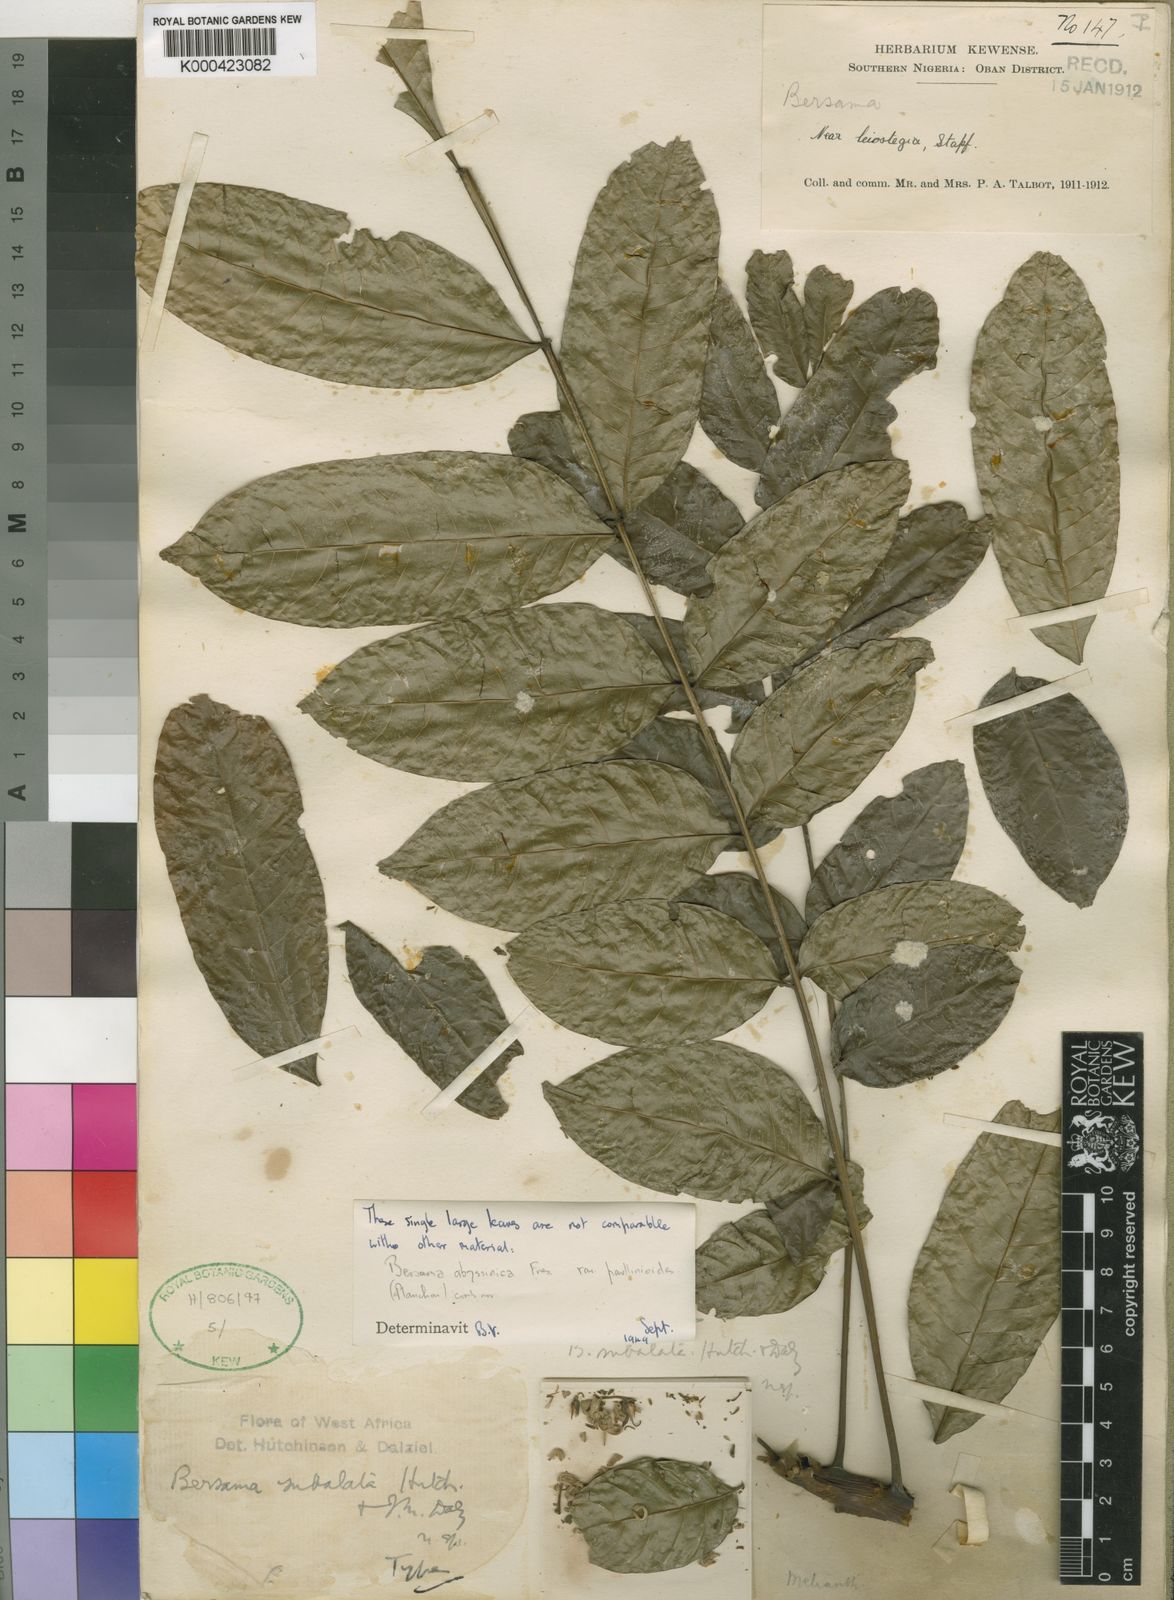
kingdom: Plantae
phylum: Tracheophyta
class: Magnoliopsida
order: Geraniales
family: Melianthaceae
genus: Bersama
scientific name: Bersama abyssinica
